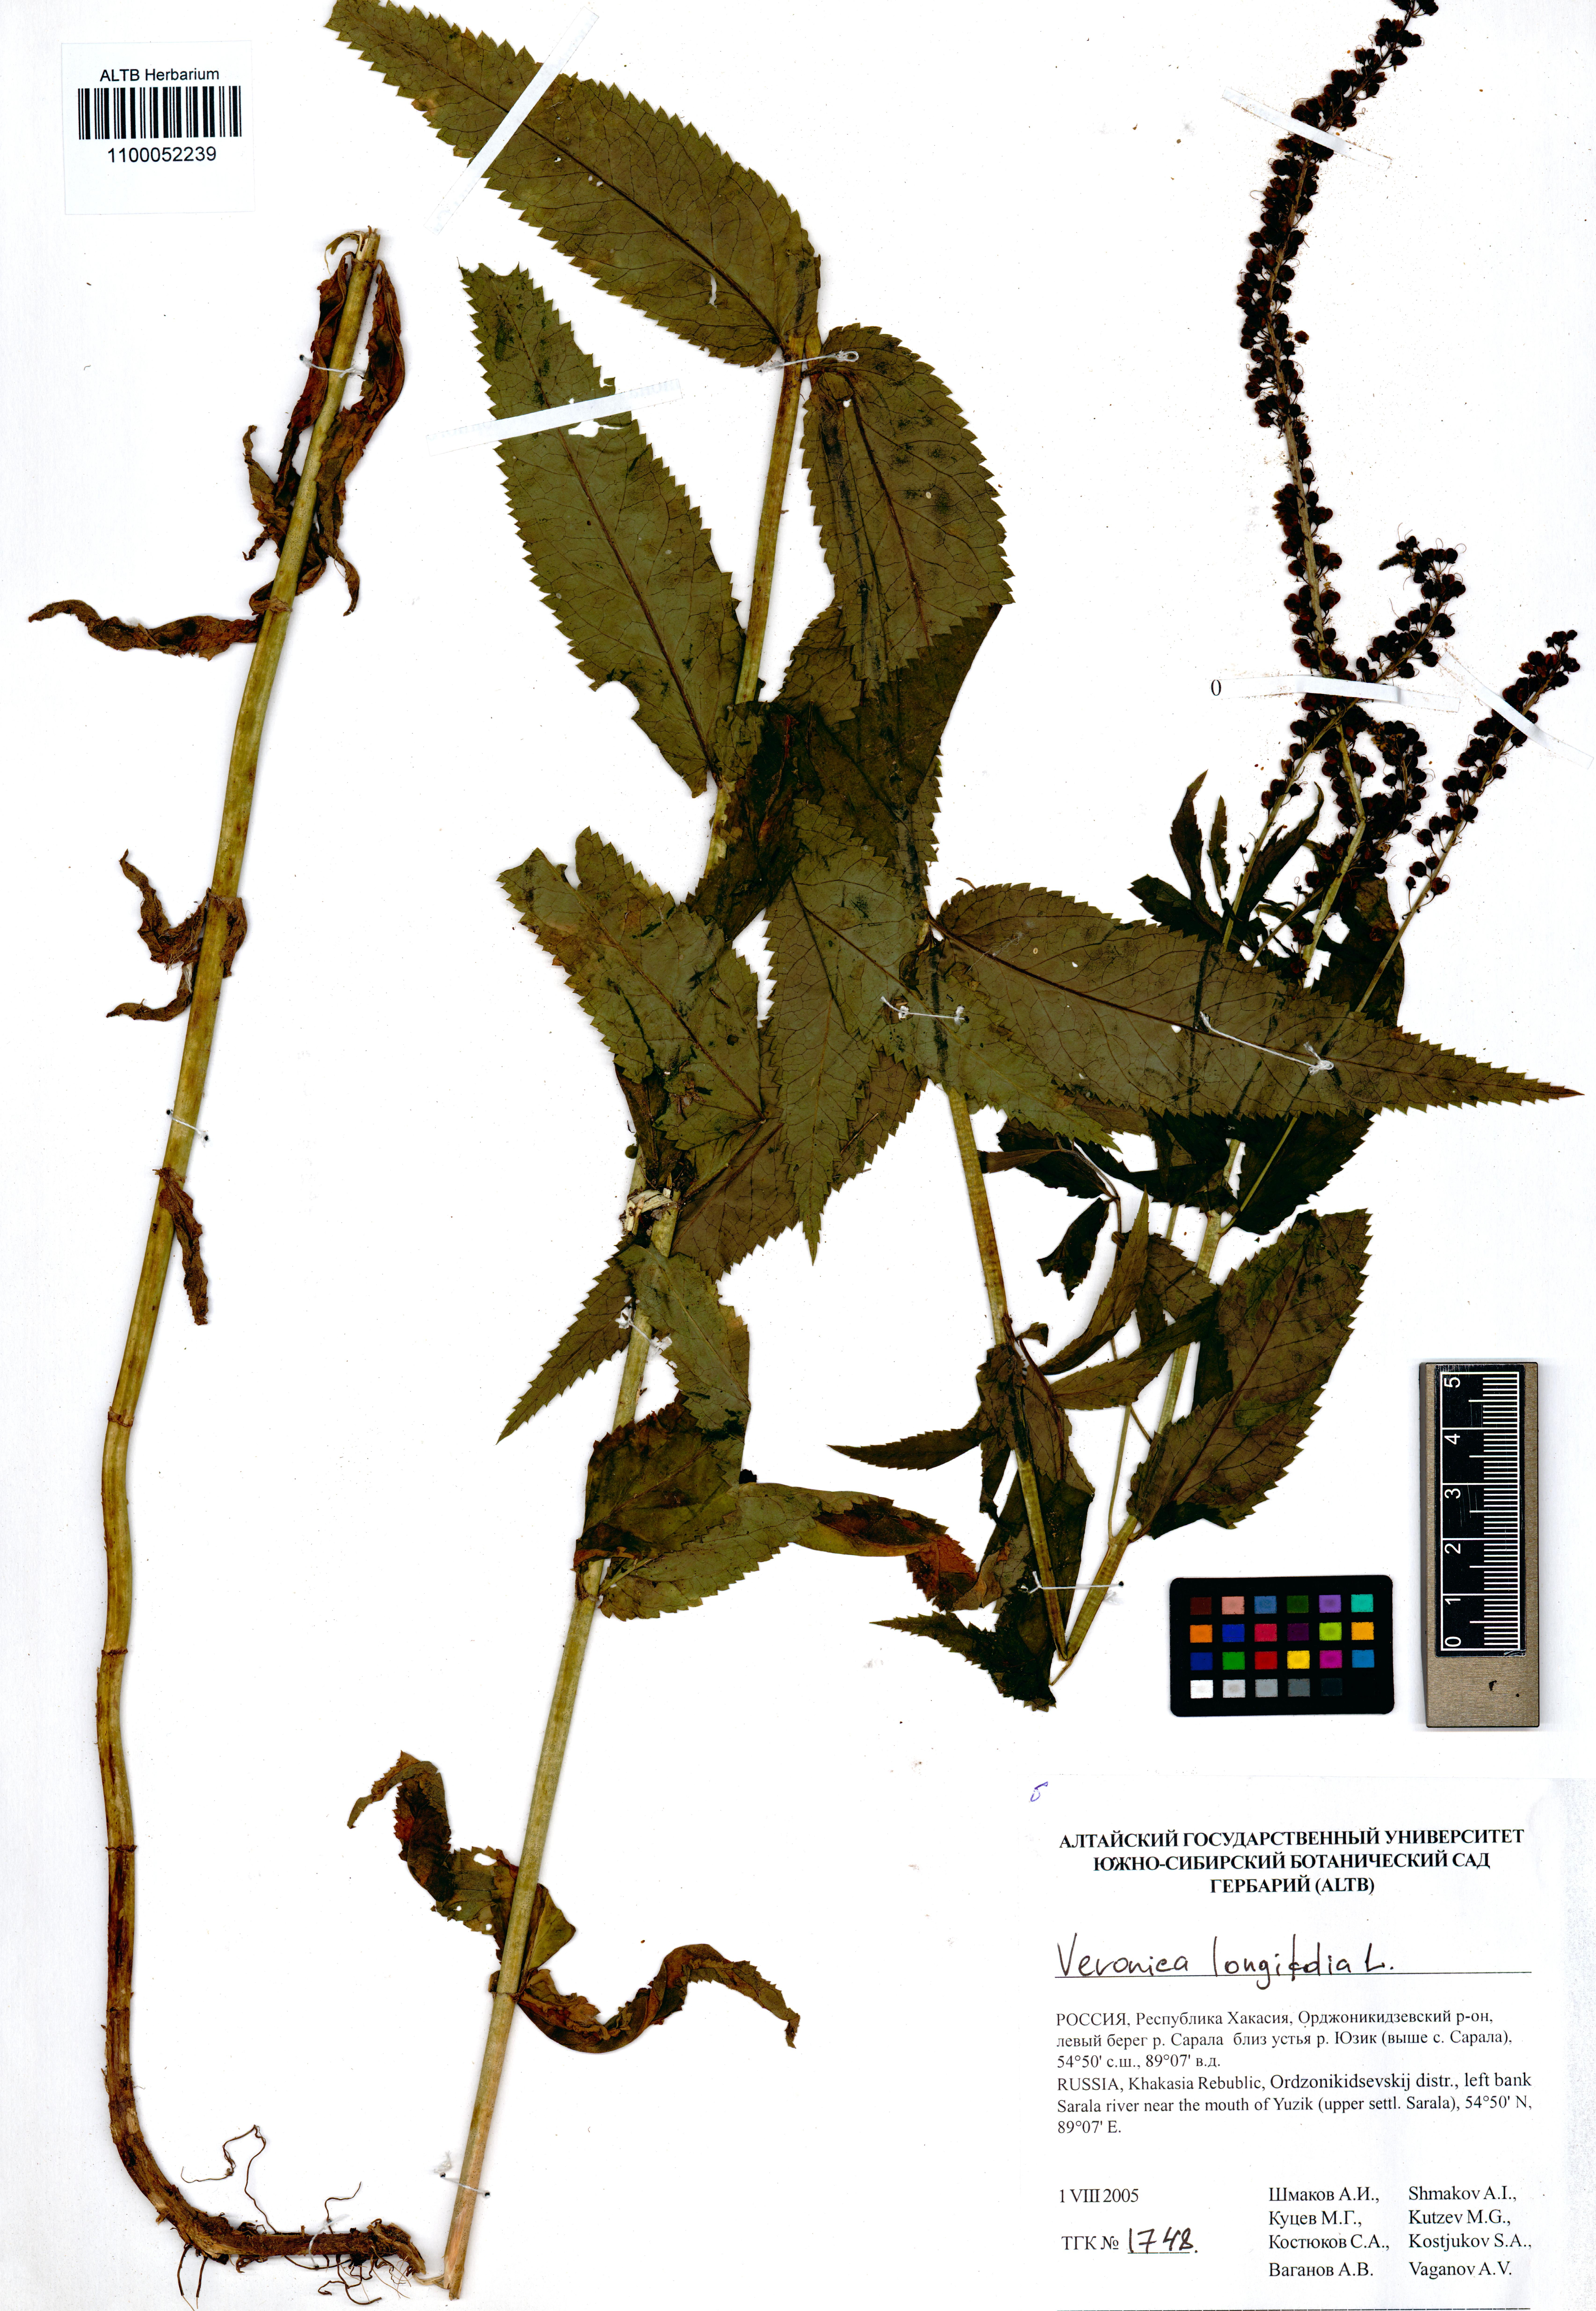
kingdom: Plantae
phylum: Tracheophyta
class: Magnoliopsida
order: Lamiales
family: Plantaginaceae
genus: Veronica
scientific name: Veronica longifolia
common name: Garden speedwell
